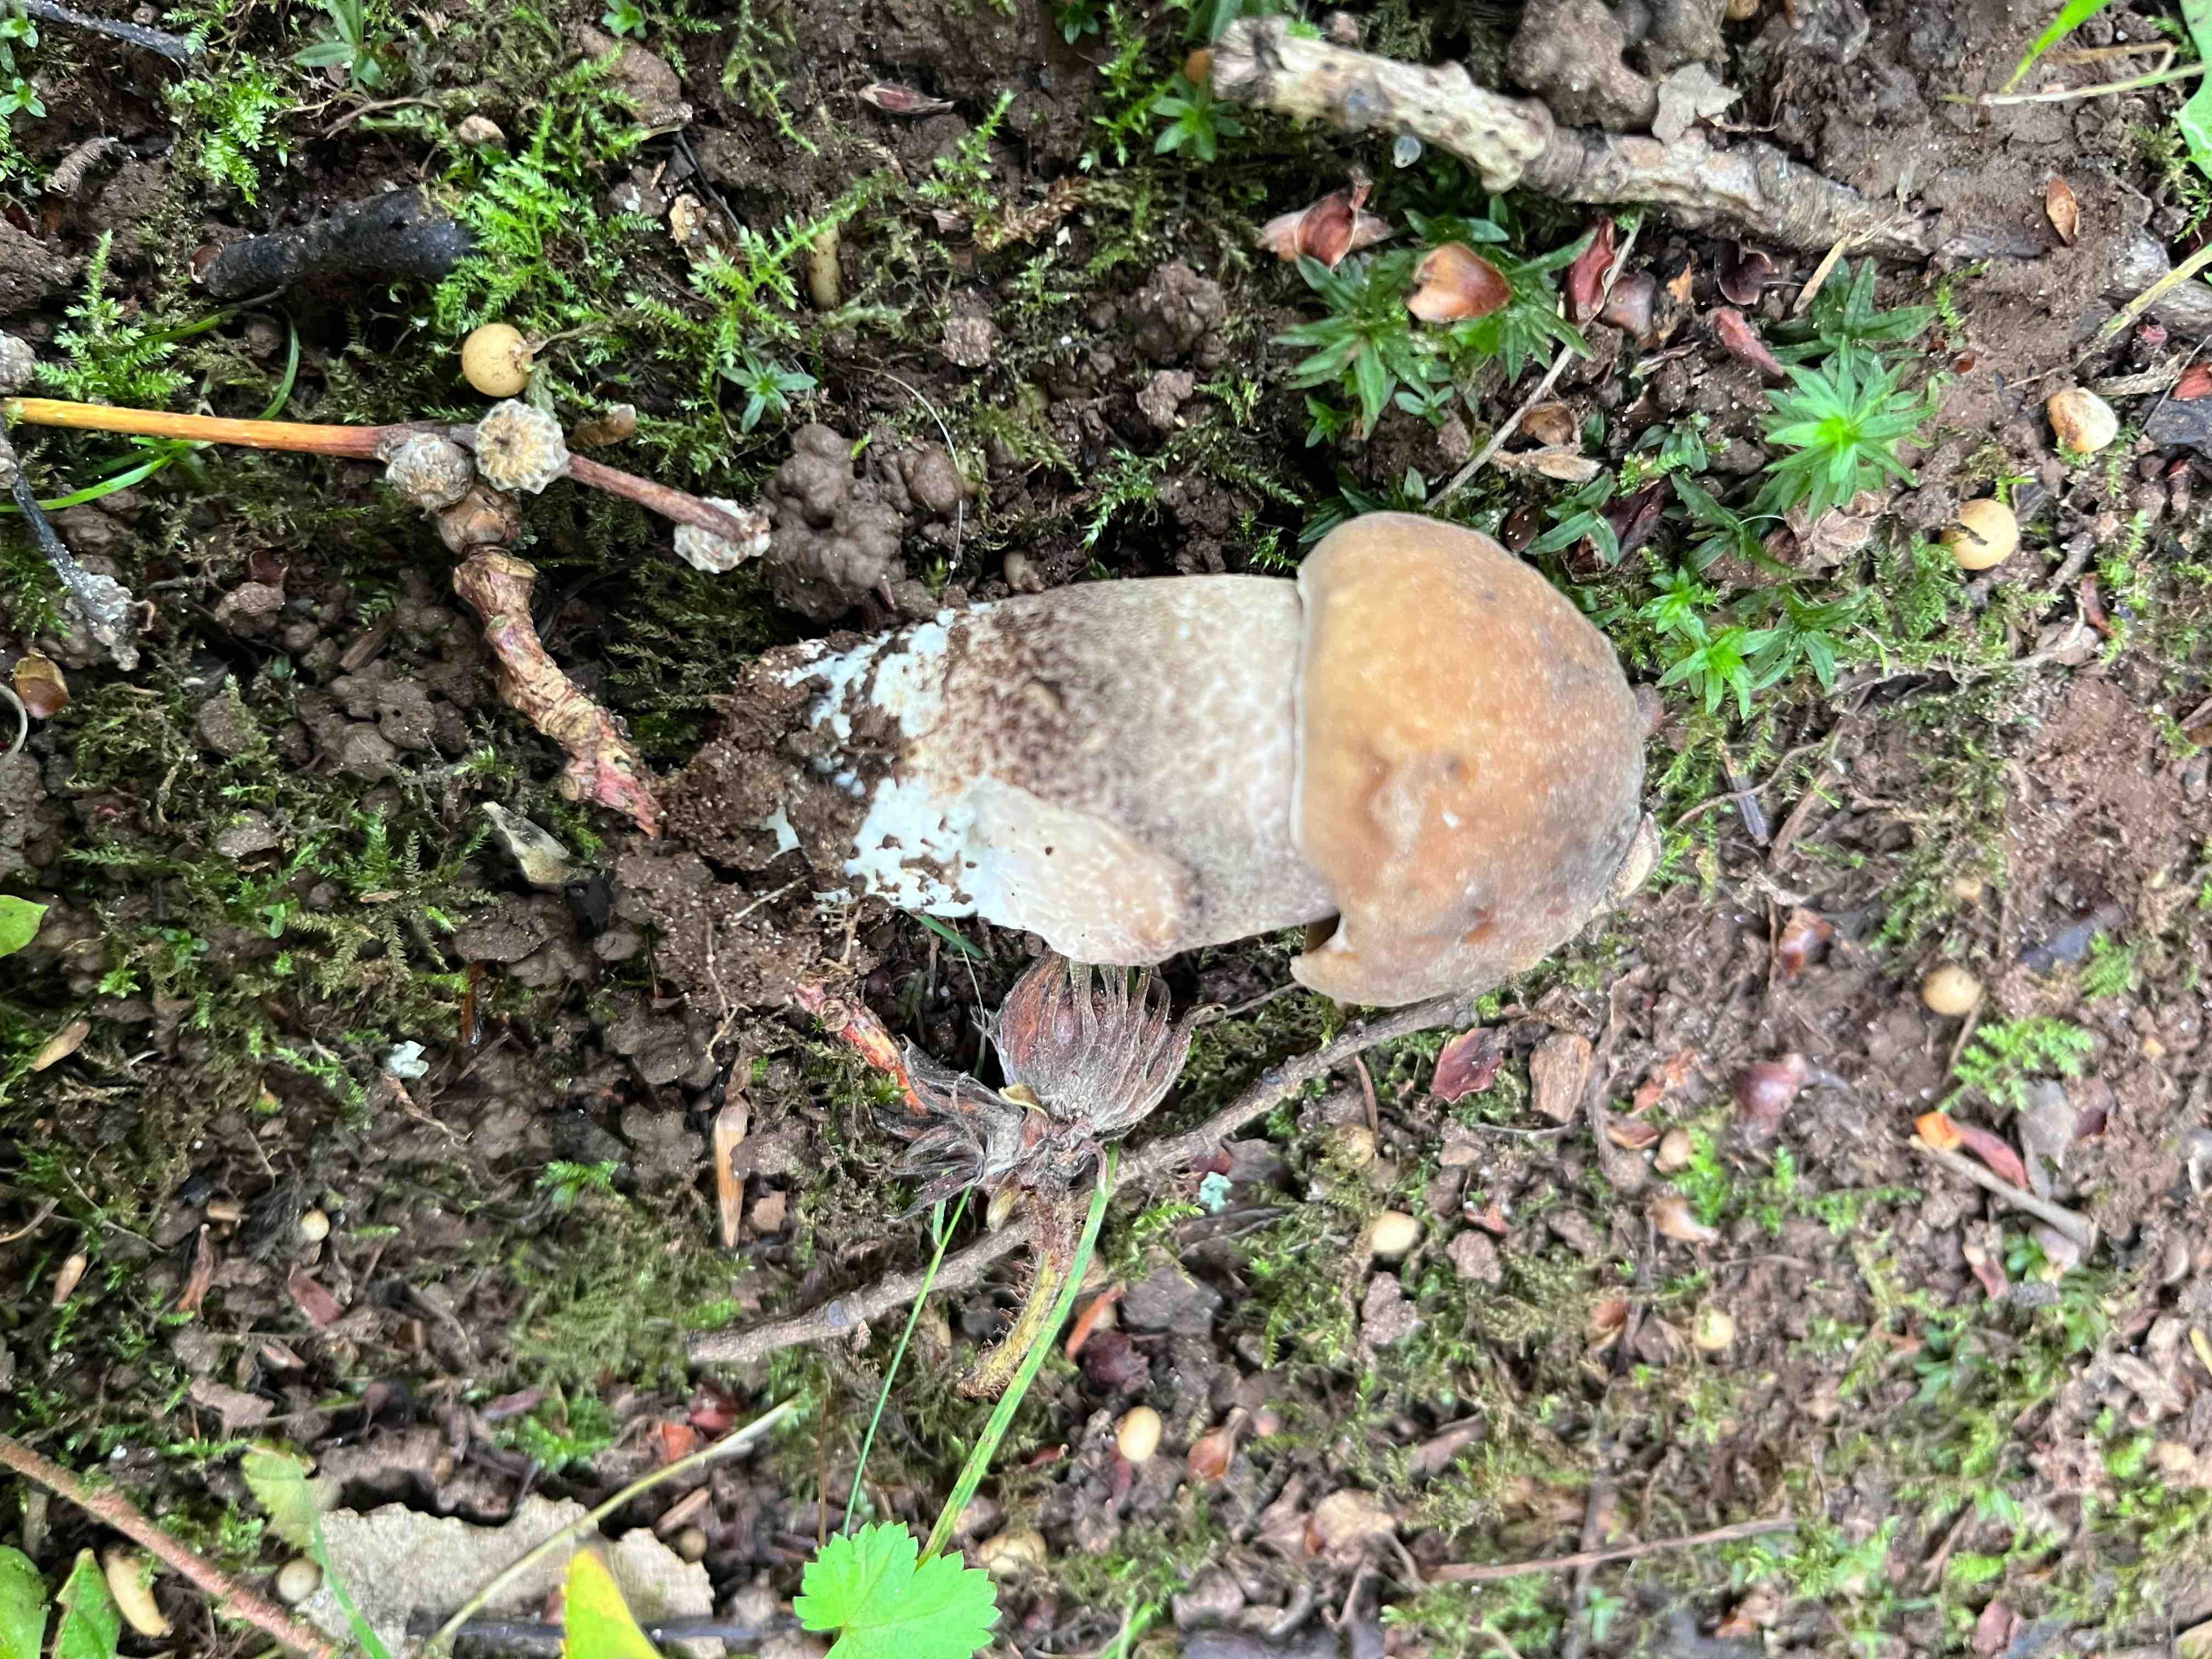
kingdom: Fungi
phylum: Basidiomycota
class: Agaricomycetes
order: Boletales
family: Boletaceae
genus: Leccinum
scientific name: Leccinum duriusculum
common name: poppel-skælrørhat
